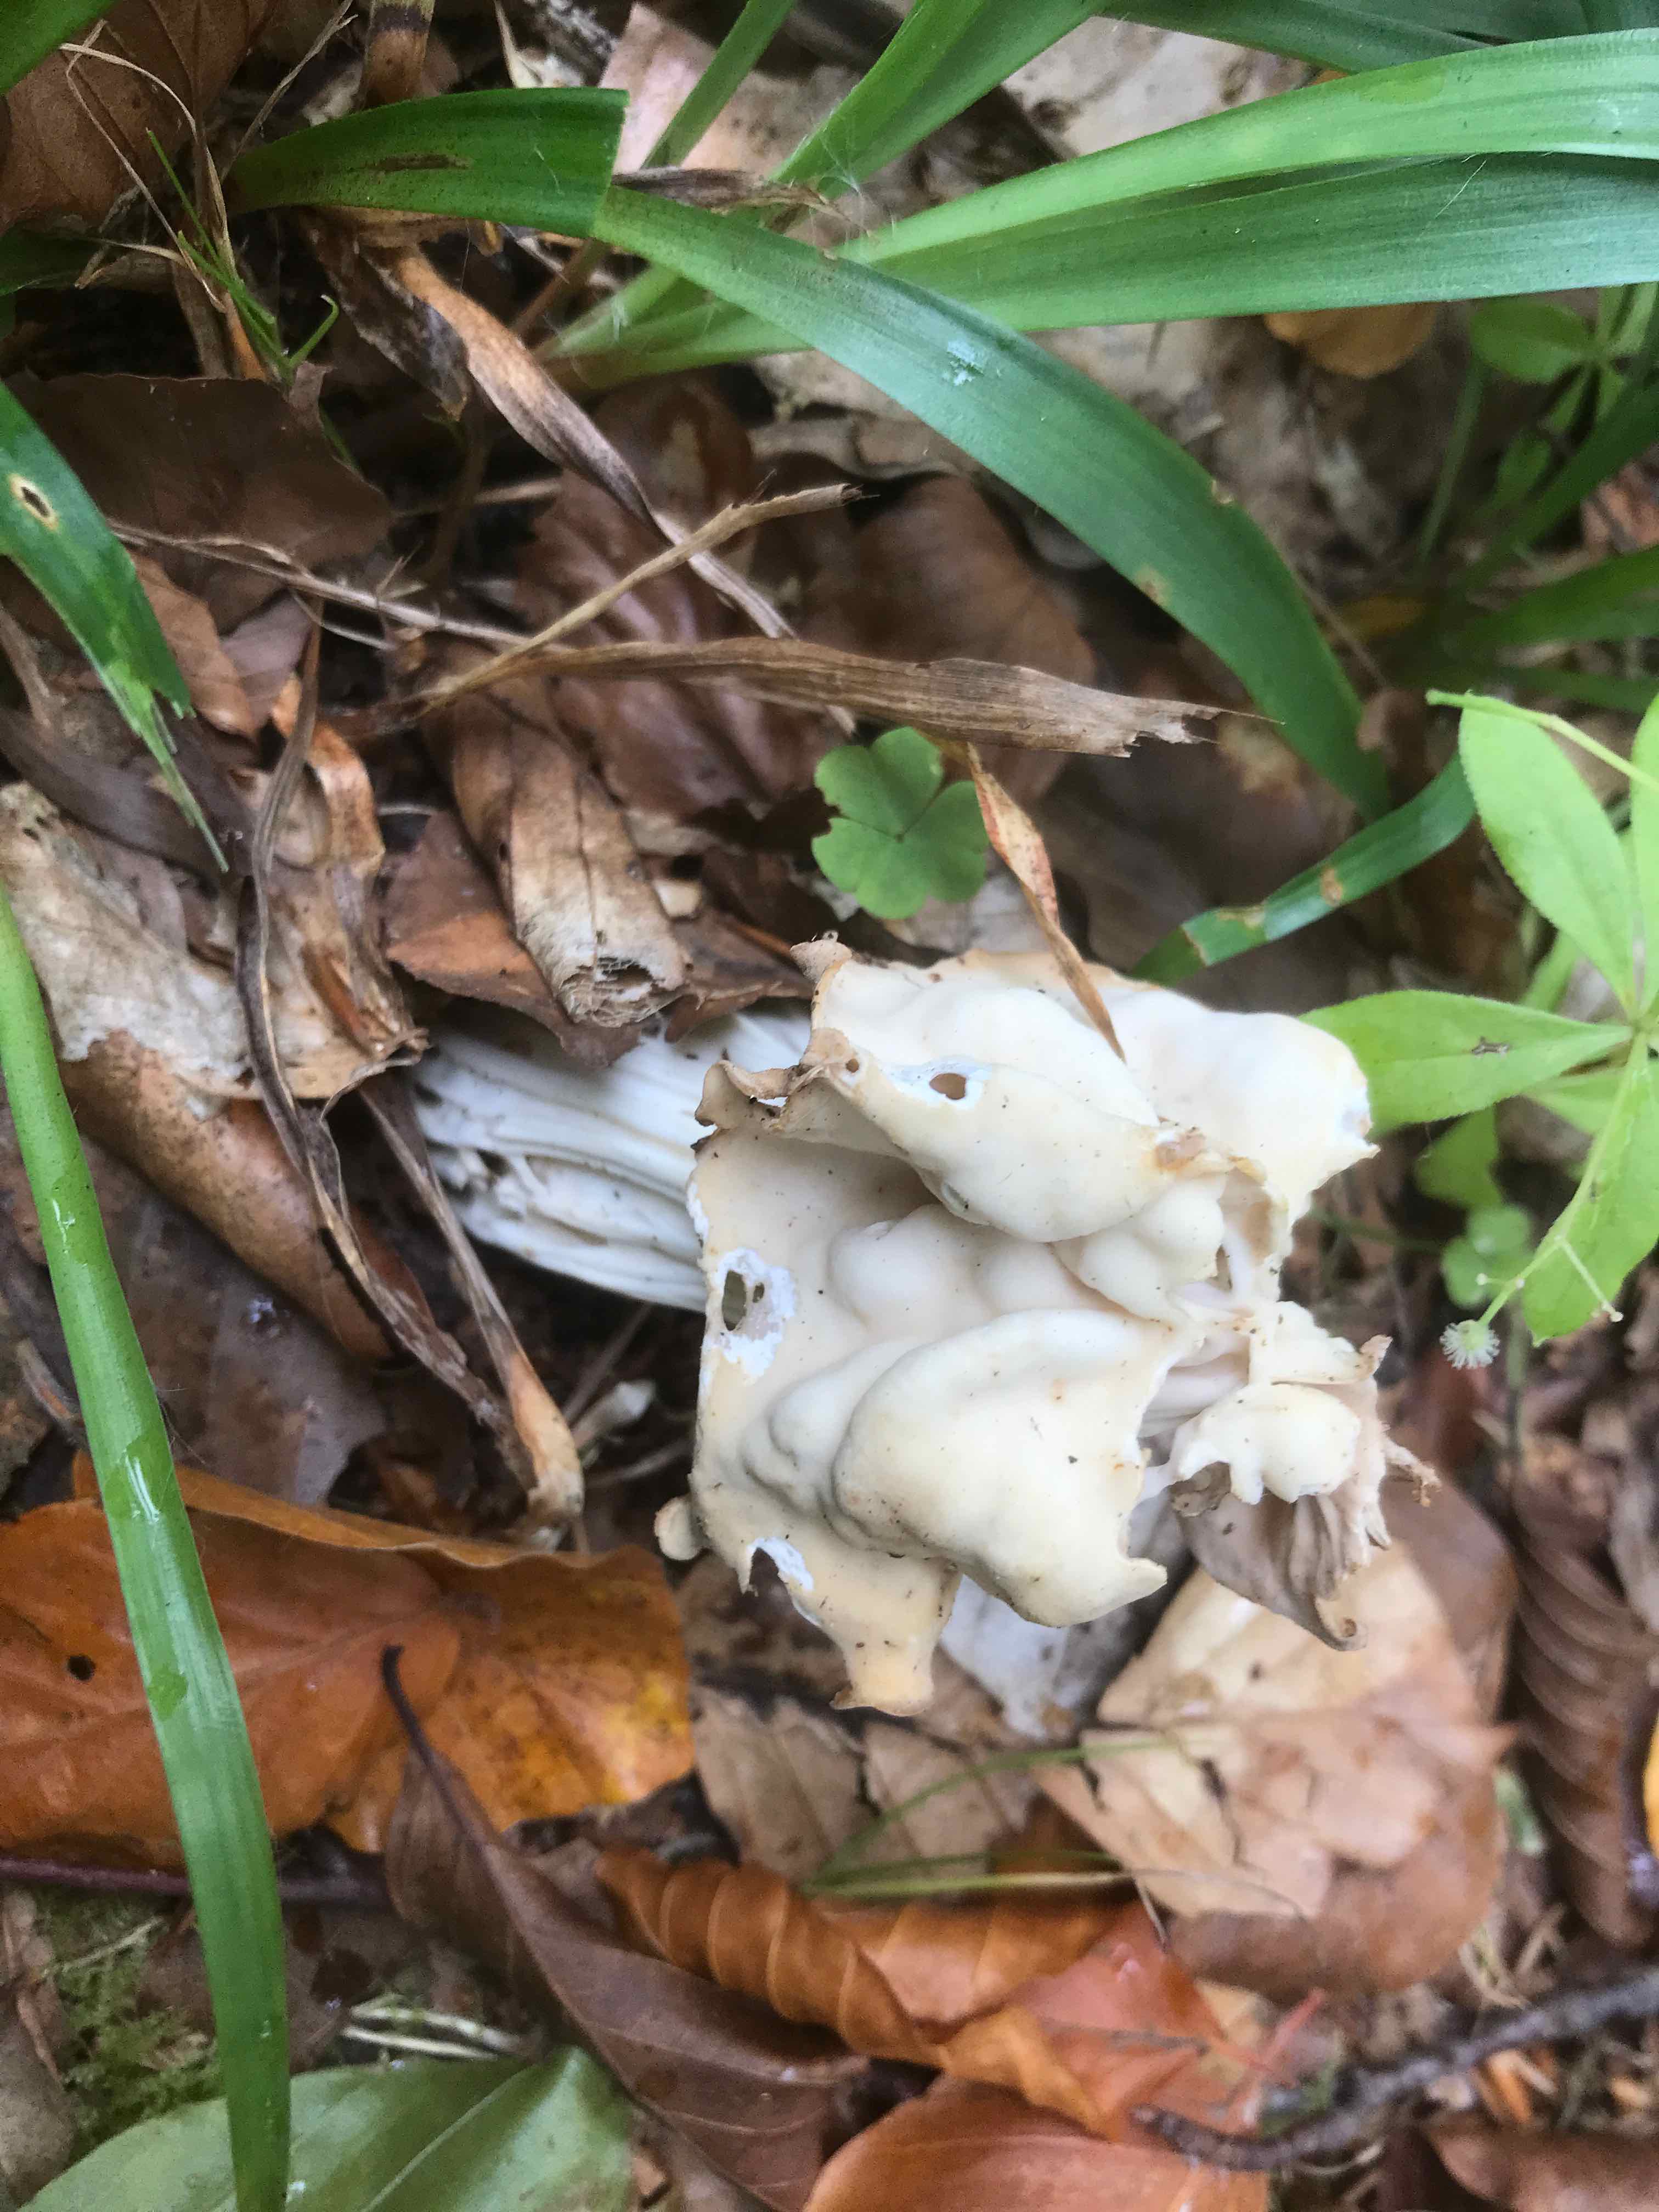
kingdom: Fungi
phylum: Ascomycota
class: Pezizomycetes
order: Pezizales
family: Helvellaceae
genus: Helvella
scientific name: Helvella crispa
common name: kruset foldhat
